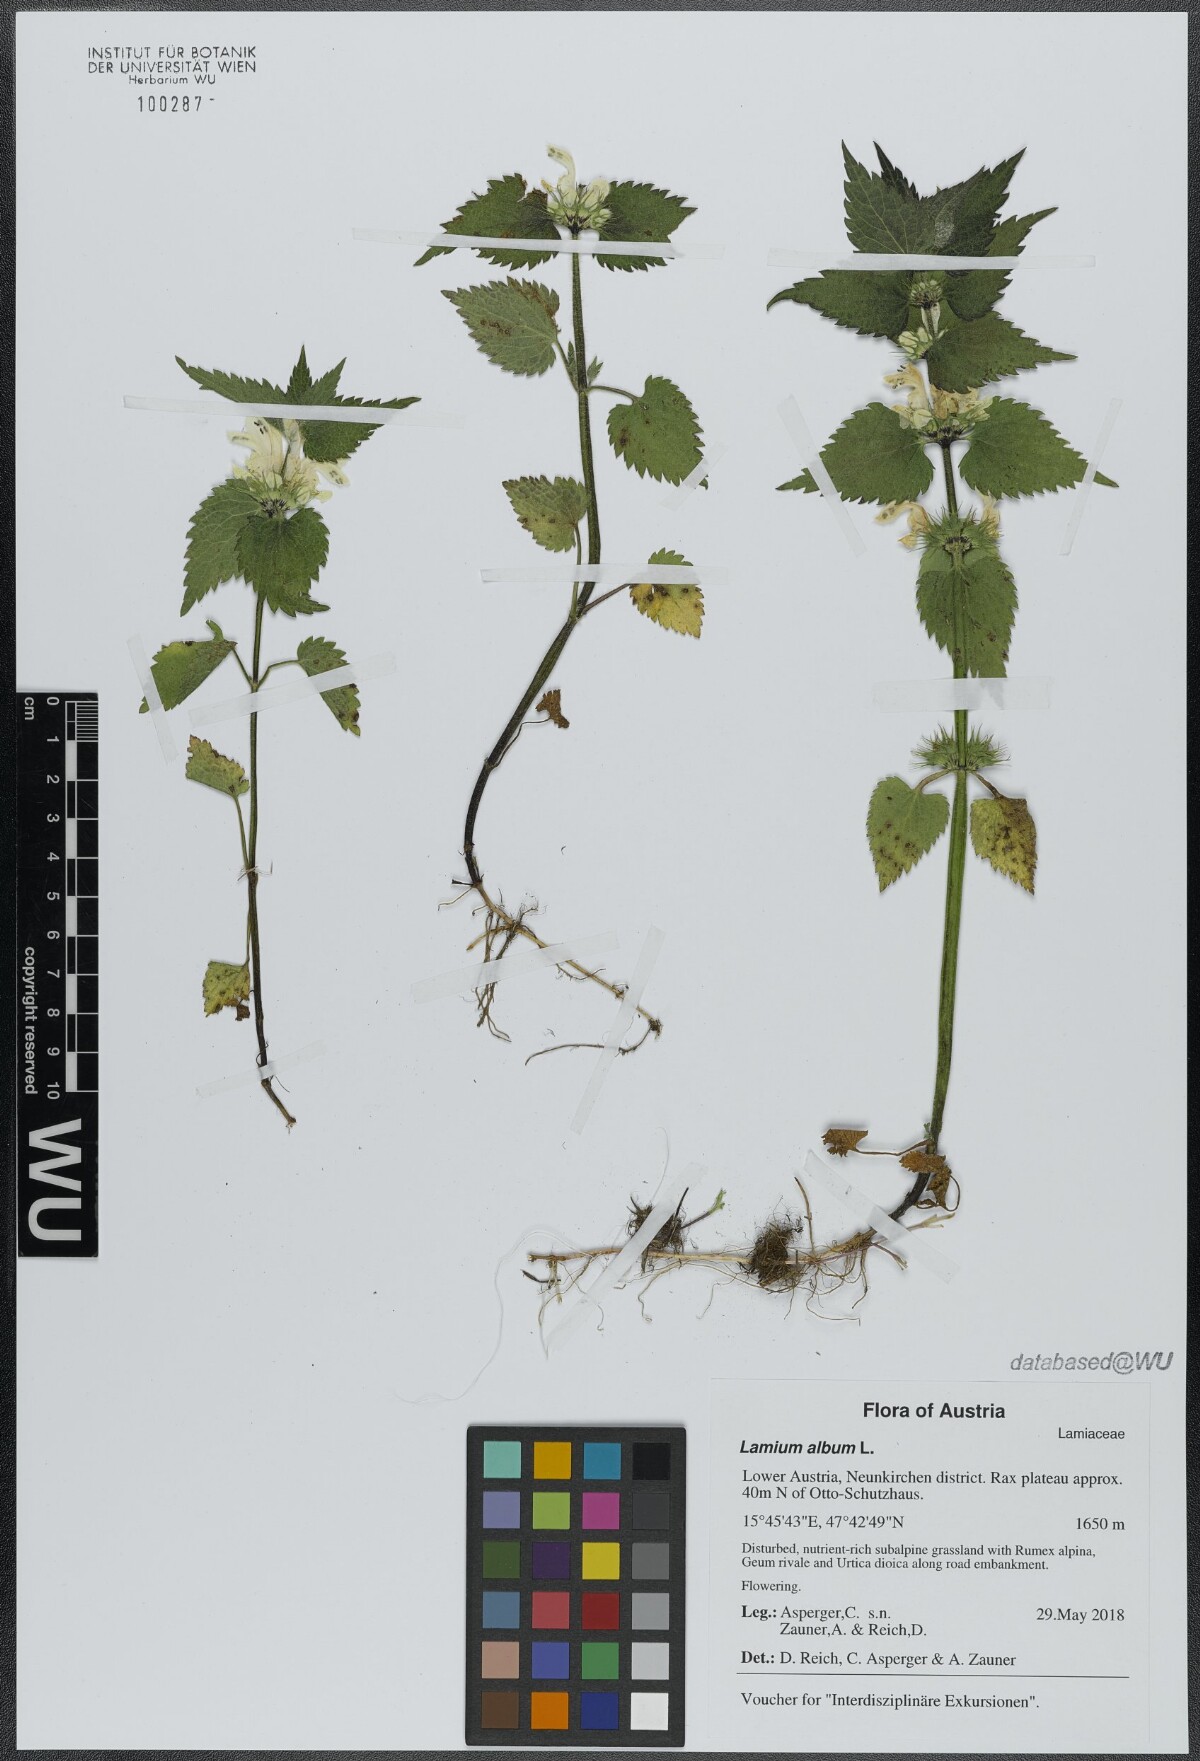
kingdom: Plantae
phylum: Tracheophyta
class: Magnoliopsida
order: Lamiales
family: Lamiaceae
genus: Lamium
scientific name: Lamium album
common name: White dead-nettle
